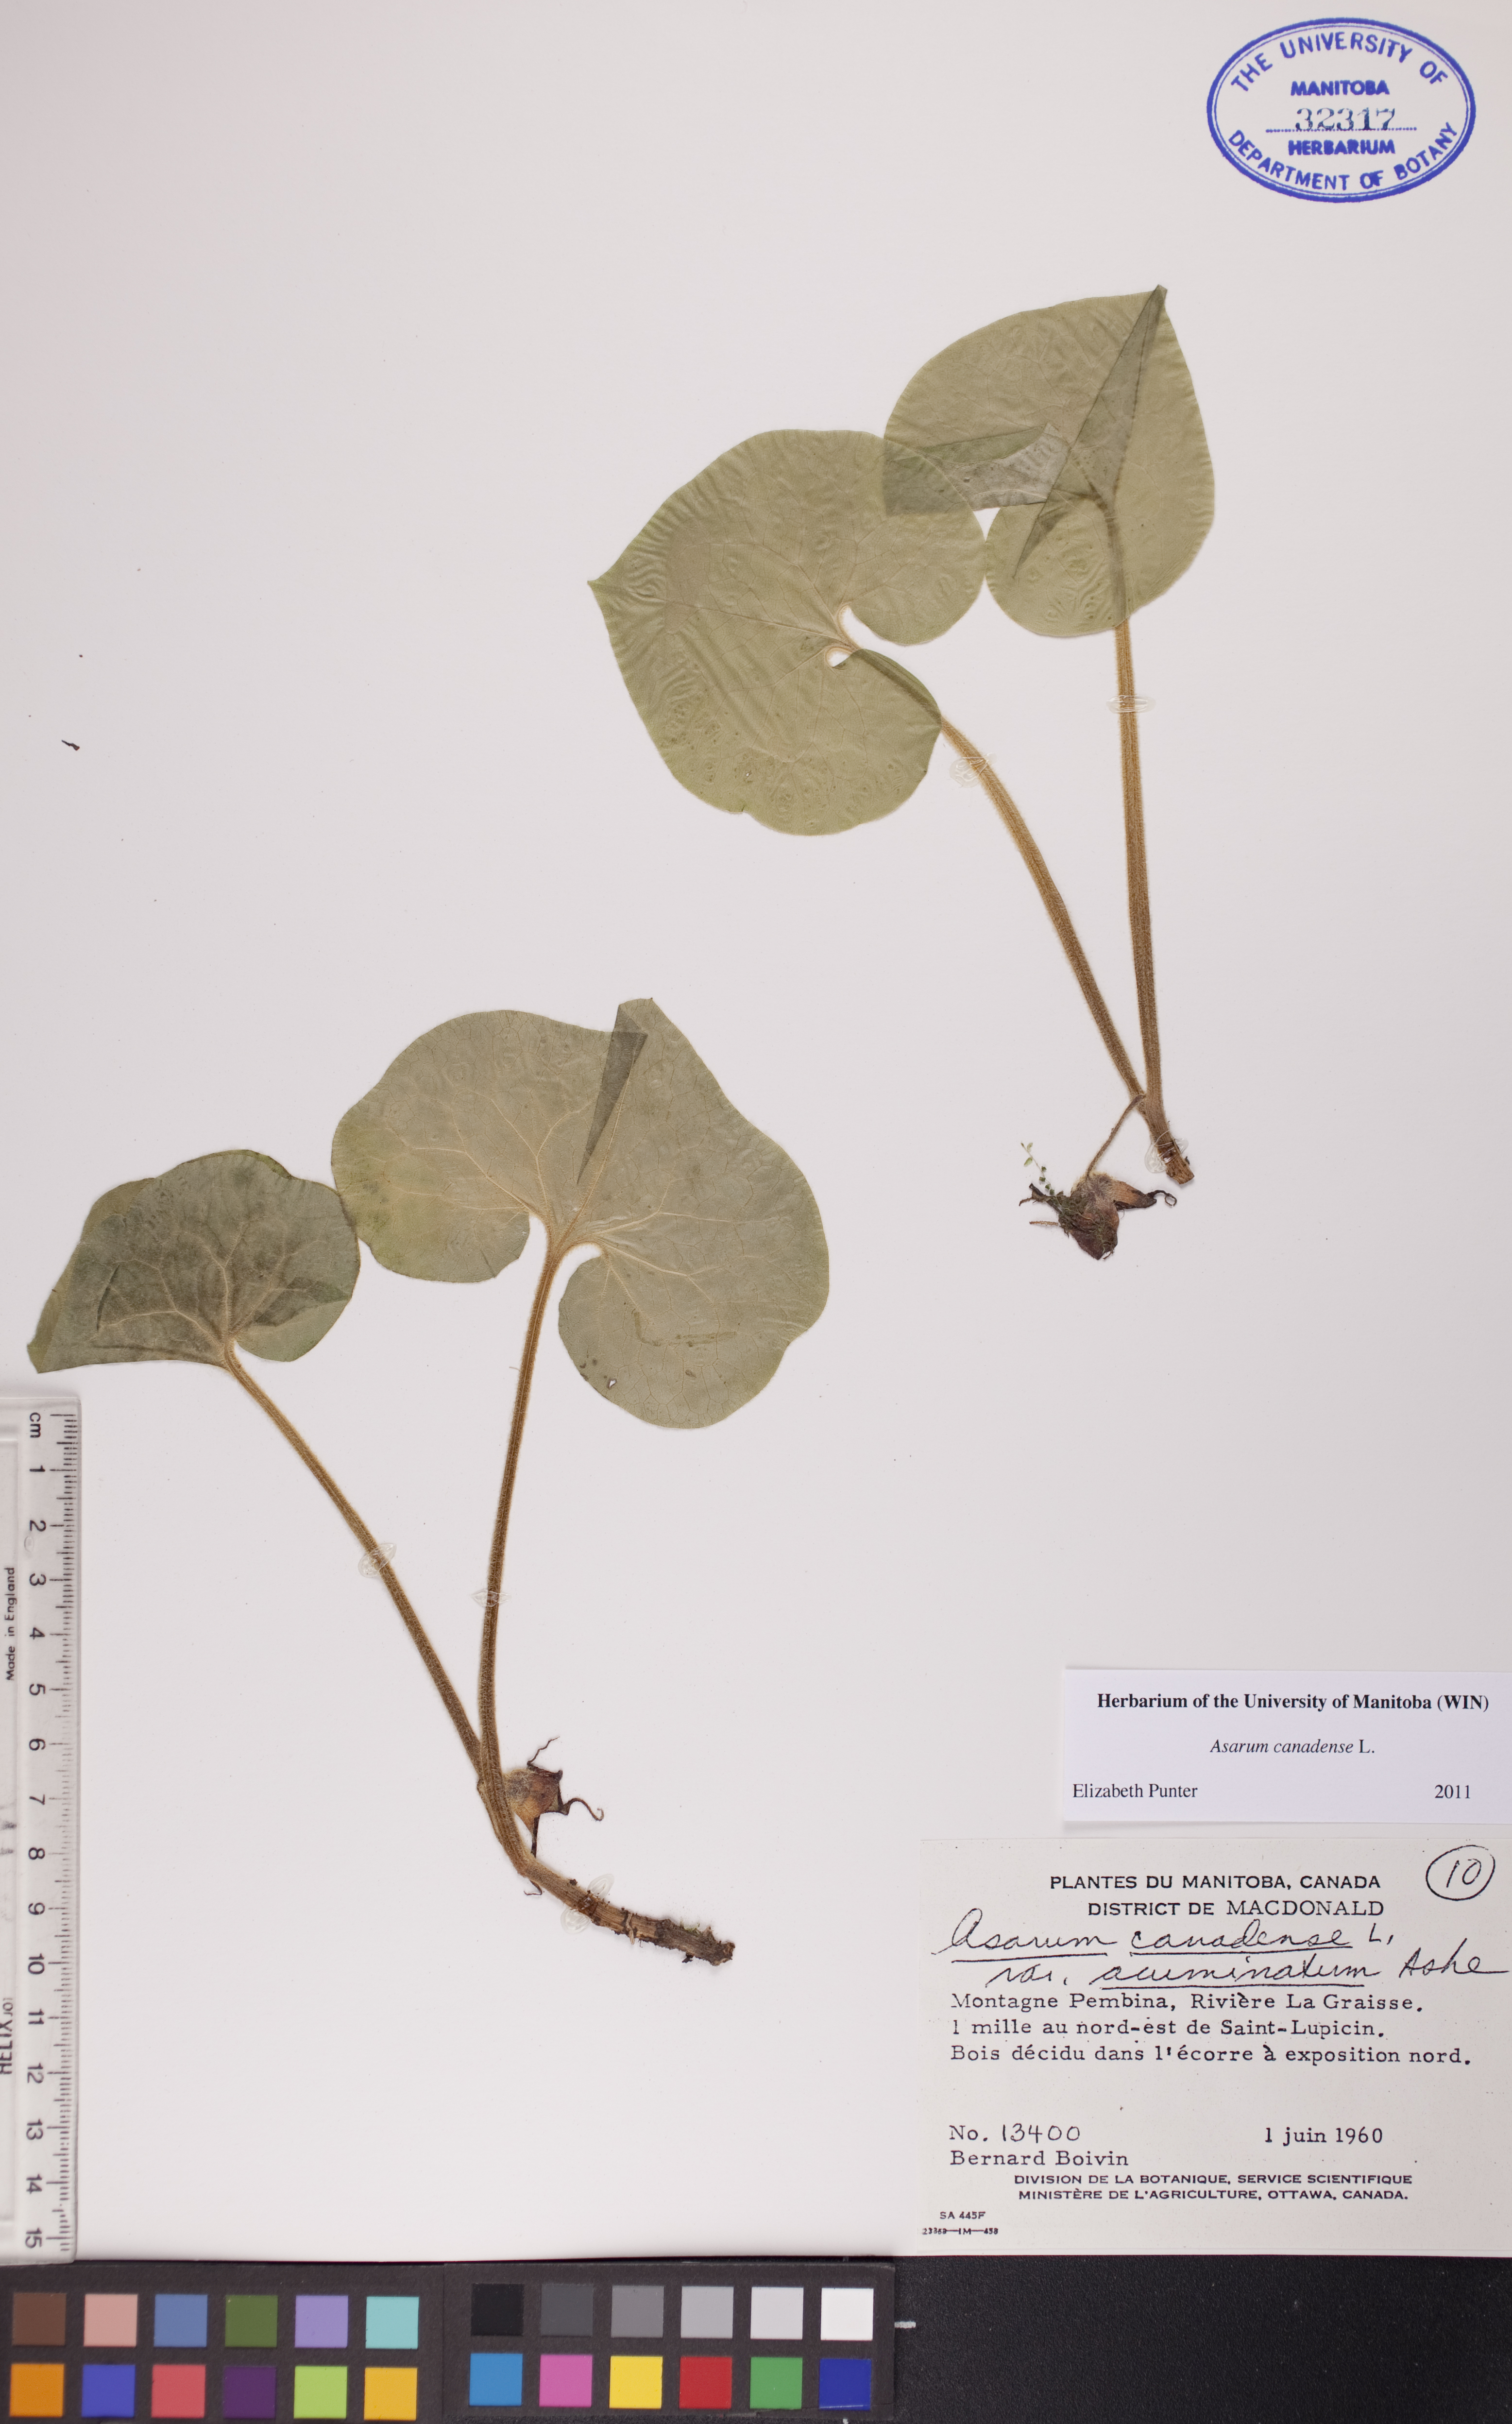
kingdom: Plantae
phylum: Tracheophyta
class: Magnoliopsida
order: Piperales
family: Aristolochiaceae
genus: Asarum
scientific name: Asarum canadense
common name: Wild ginger
